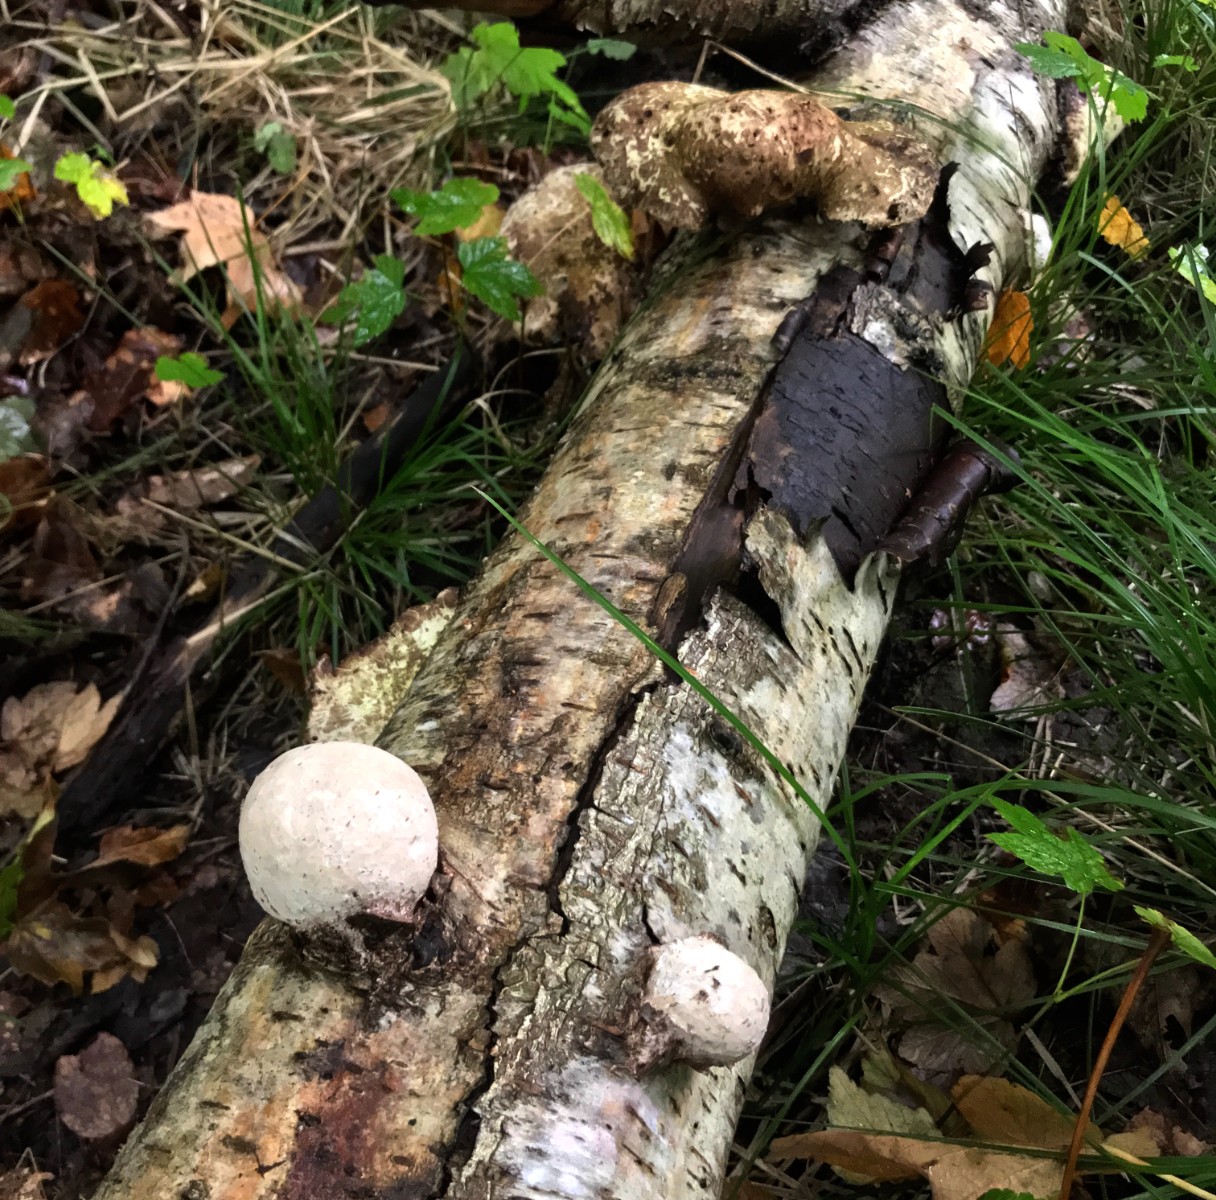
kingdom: Fungi
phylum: Basidiomycota
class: Agaricomycetes
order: Polyporales
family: Fomitopsidaceae
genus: Fomitopsis
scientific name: Fomitopsis betulina
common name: birkeporesvamp
